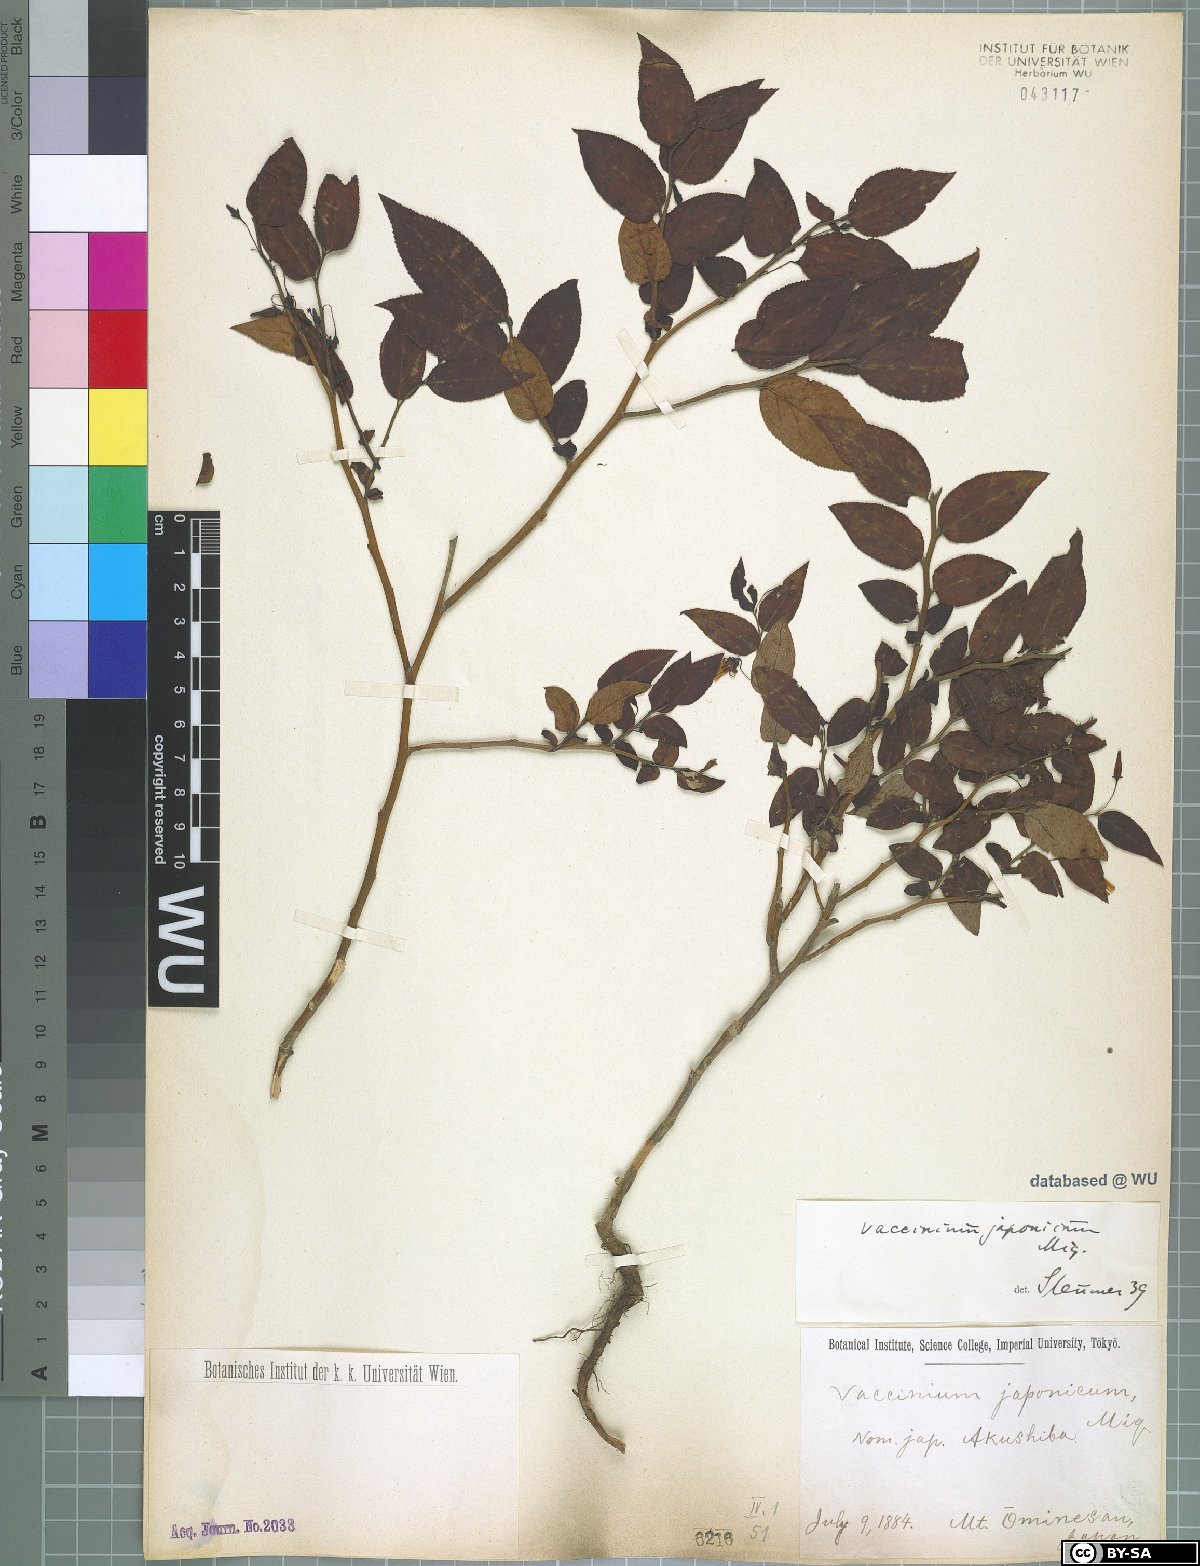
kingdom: Plantae
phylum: Tracheophyta
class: Magnoliopsida
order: Ericales
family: Ericaceae
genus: Vaccinium
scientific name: Vaccinium japonicum
